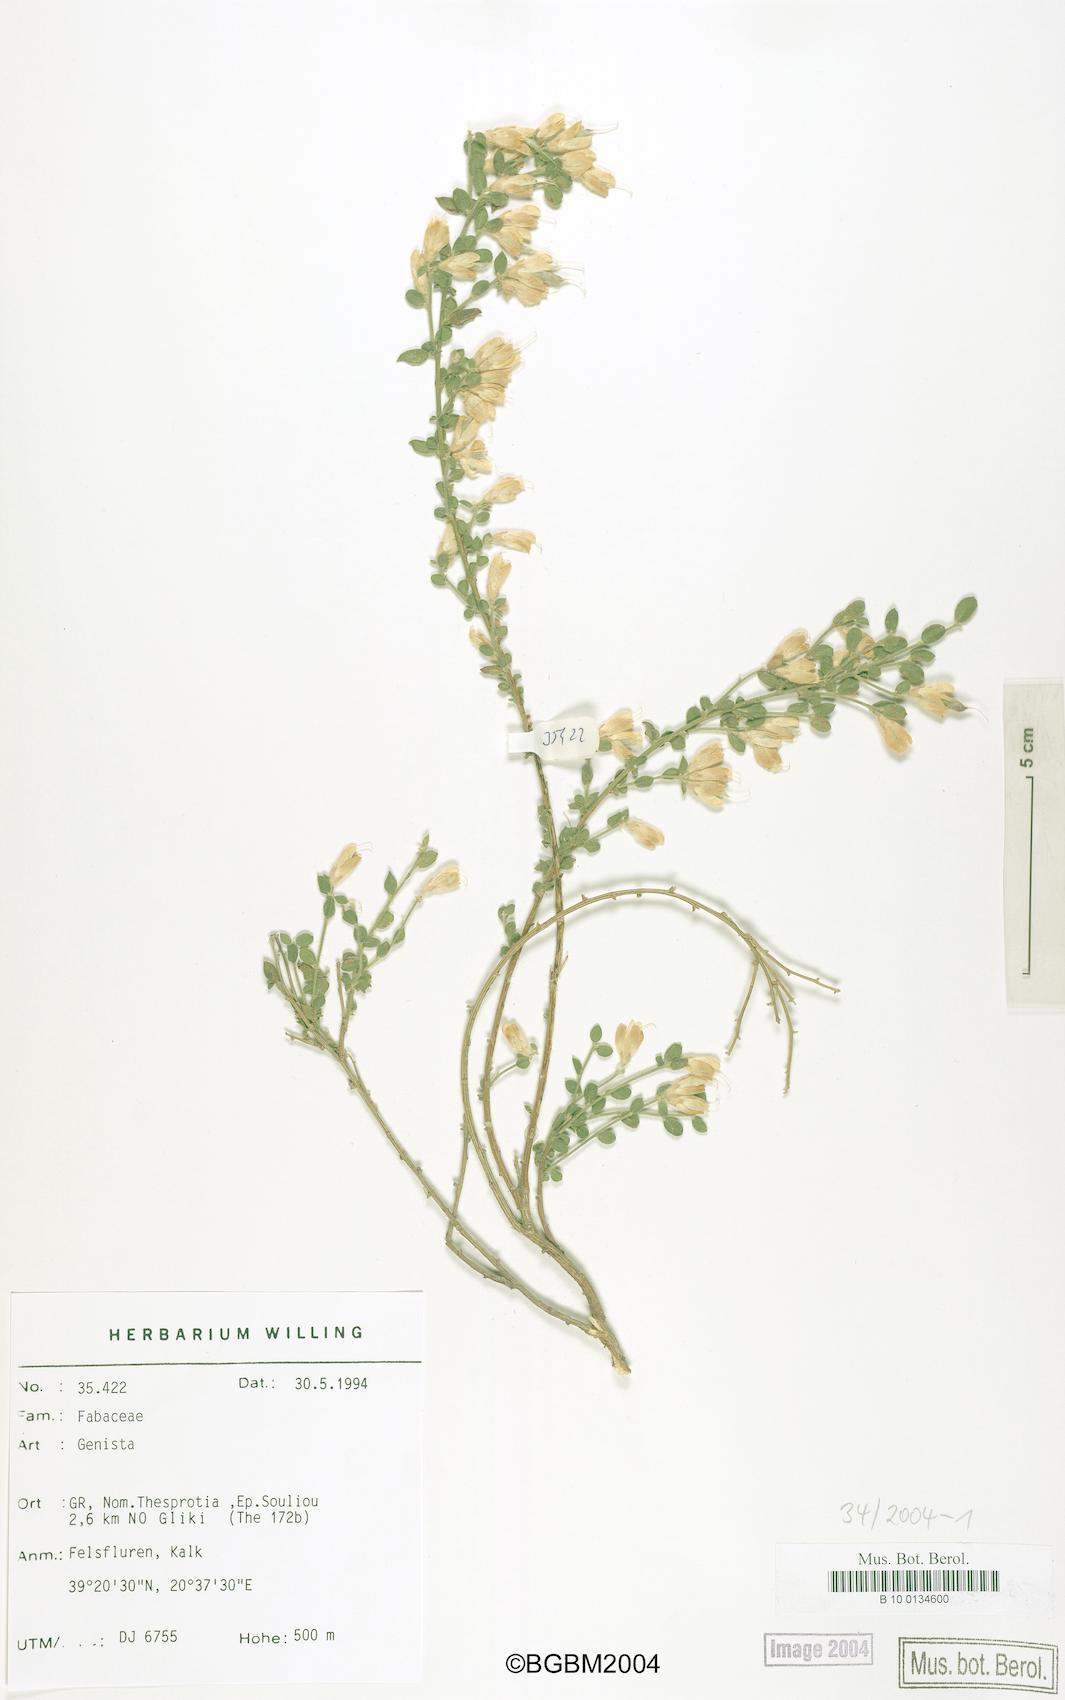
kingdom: Plantae
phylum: Tracheophyta
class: Magnoliopsida
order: Fabales
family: Fabaceae
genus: Genista
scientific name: Genista willingii
